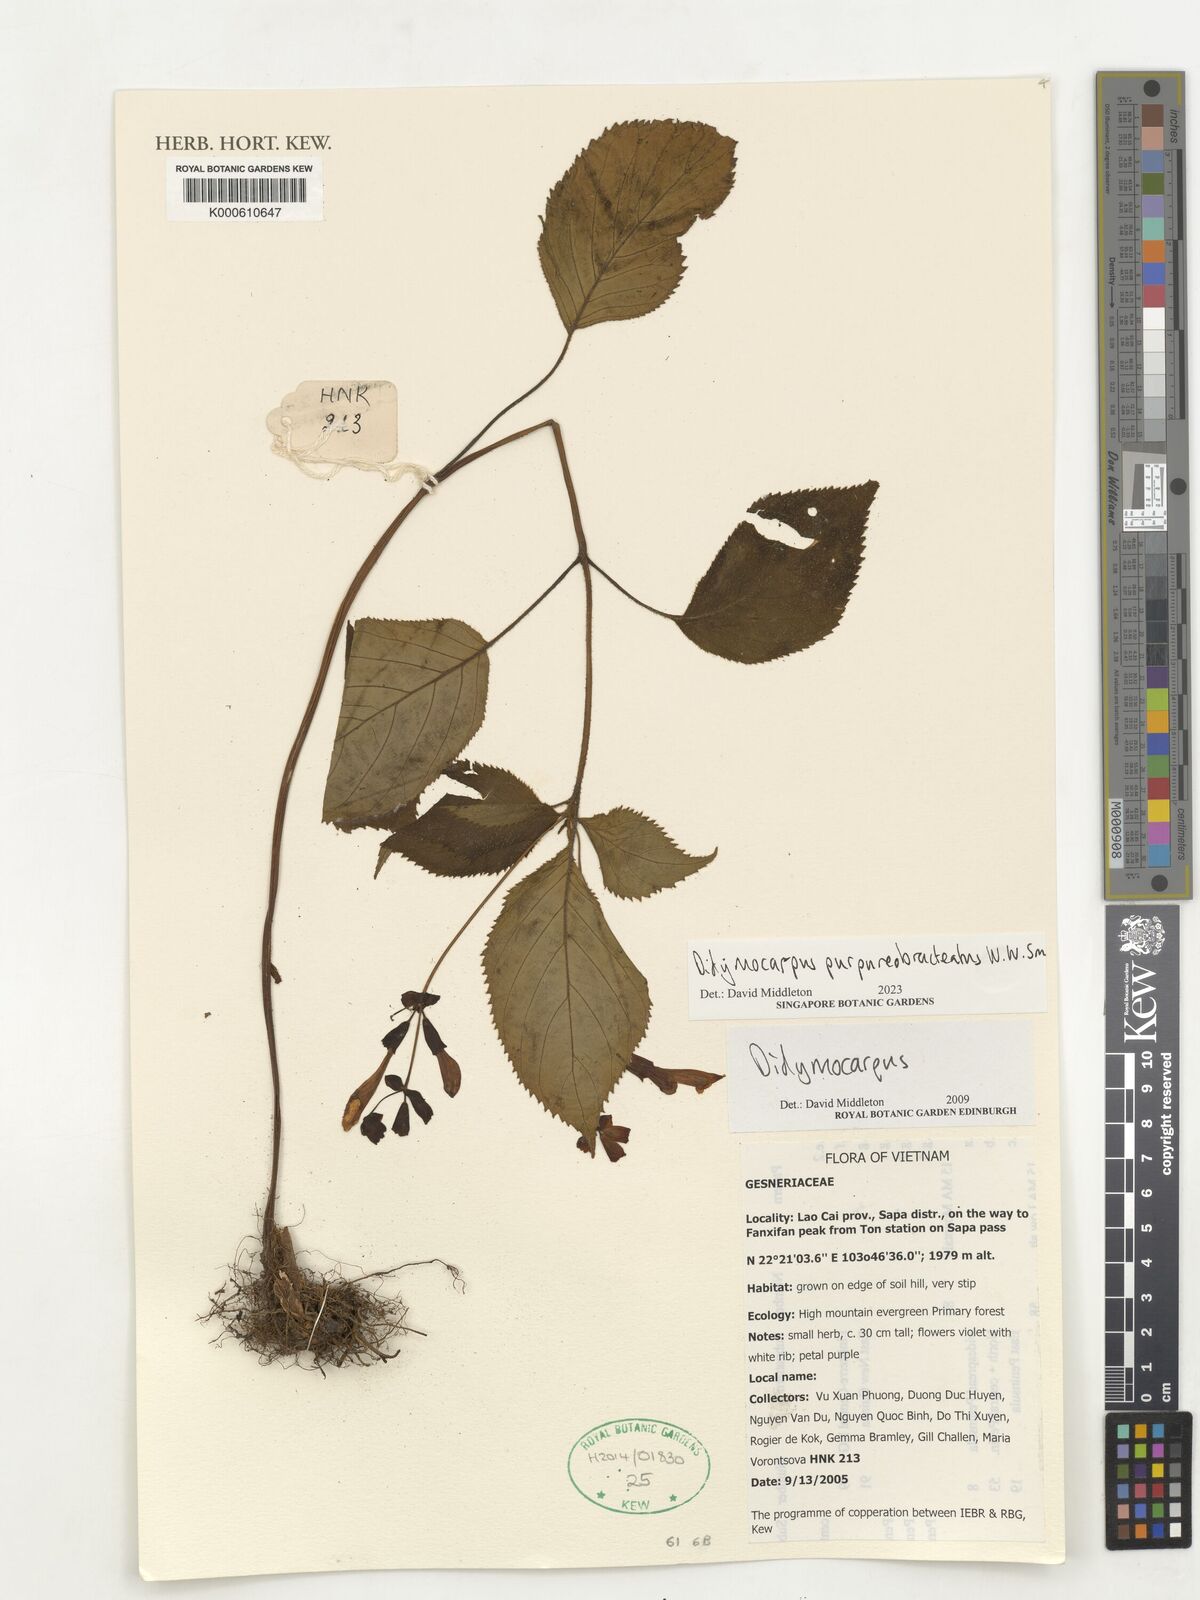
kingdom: Plantae
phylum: Tracheophyta
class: Magnoliopsida
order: Lamiales
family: Gesneriaceae
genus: Didymocarpus
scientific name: Didymocarpus purpureobracteatus
